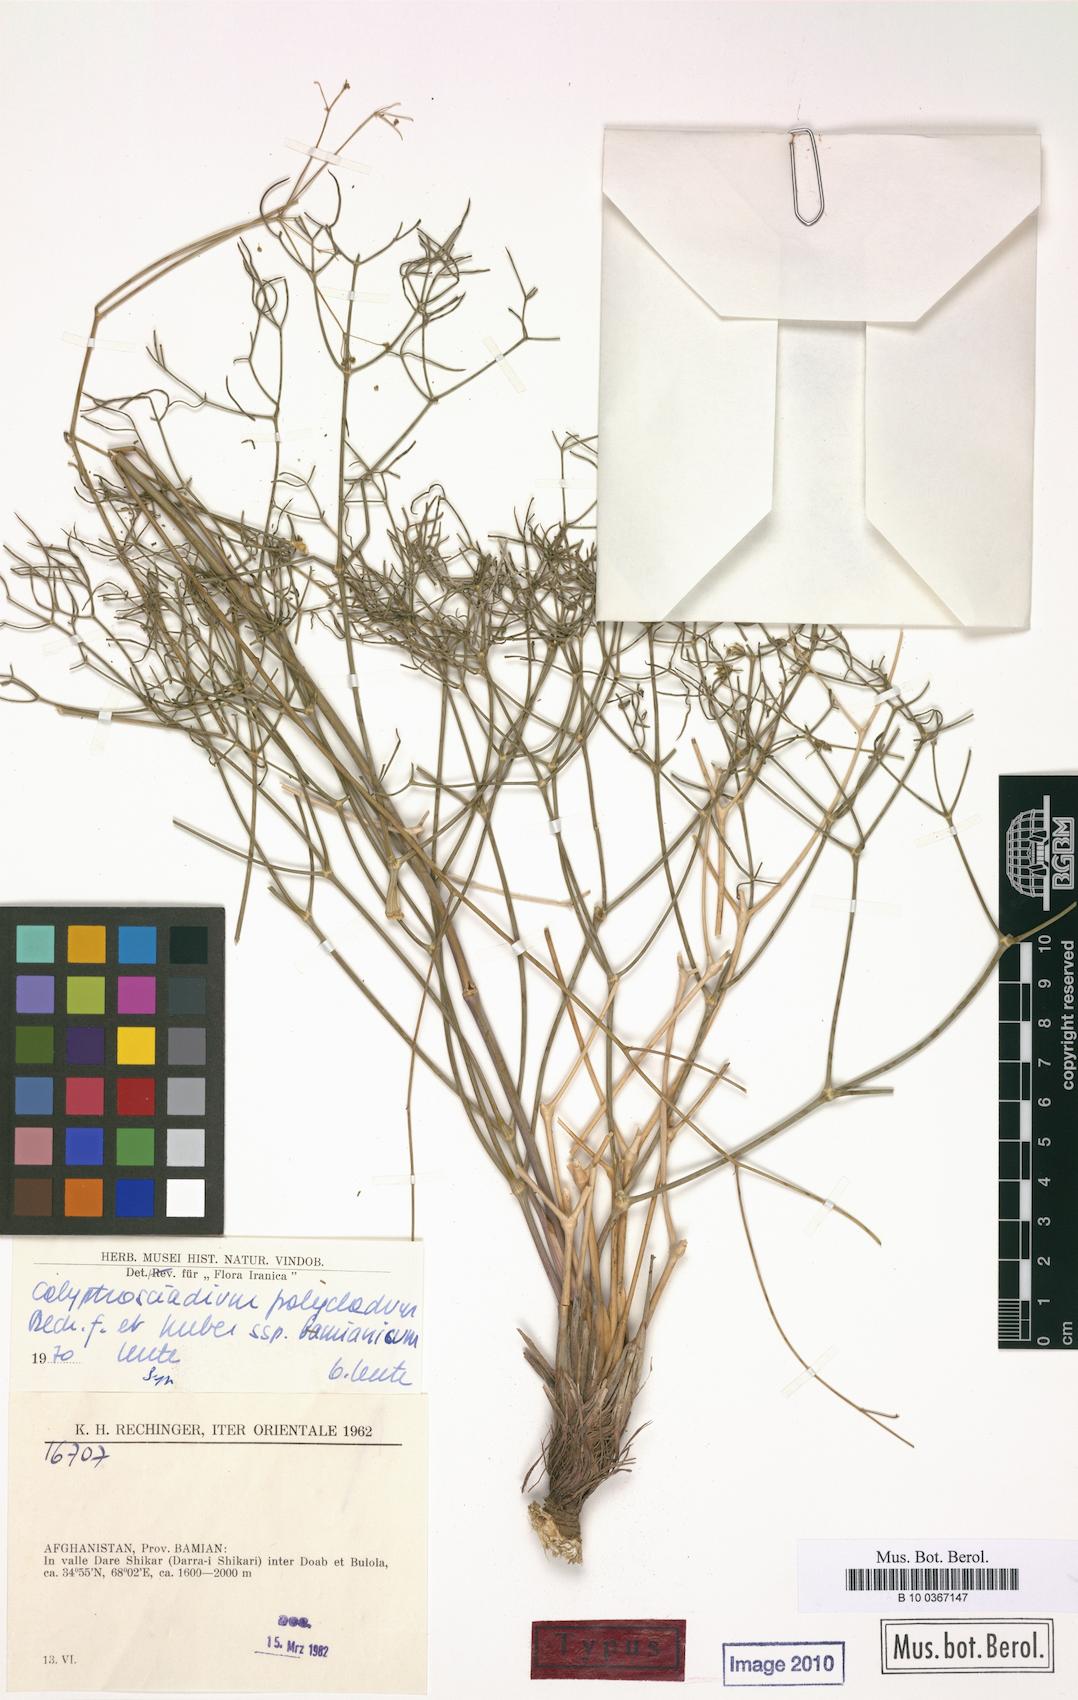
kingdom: Plantae
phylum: Tracheophyta
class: Magnoliopsida
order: Apiales
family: Apiaceae
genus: Calyptrosciadium
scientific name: Calyptrosciadium bungei
